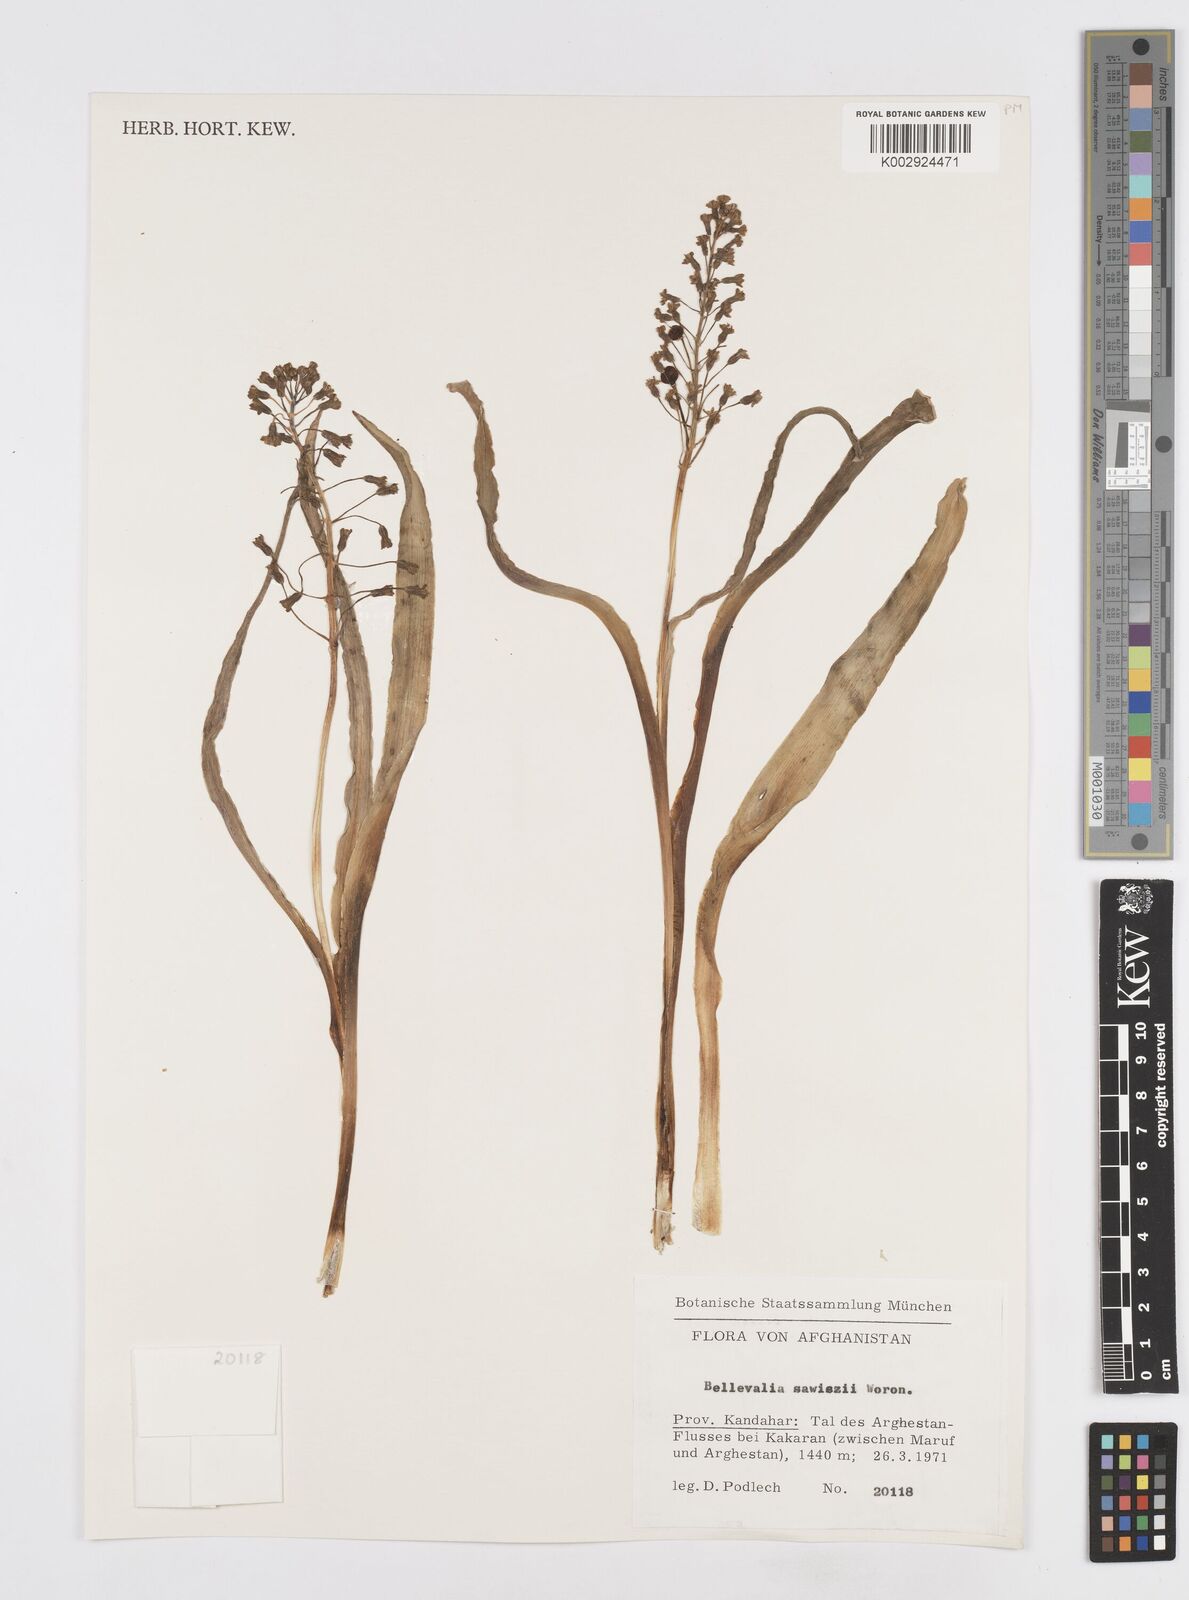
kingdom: Plantae
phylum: Tracheophyta
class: Liliopsida
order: Asparagales
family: Asparagaceae
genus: Bellevalia
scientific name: Bellevalia saviczii
